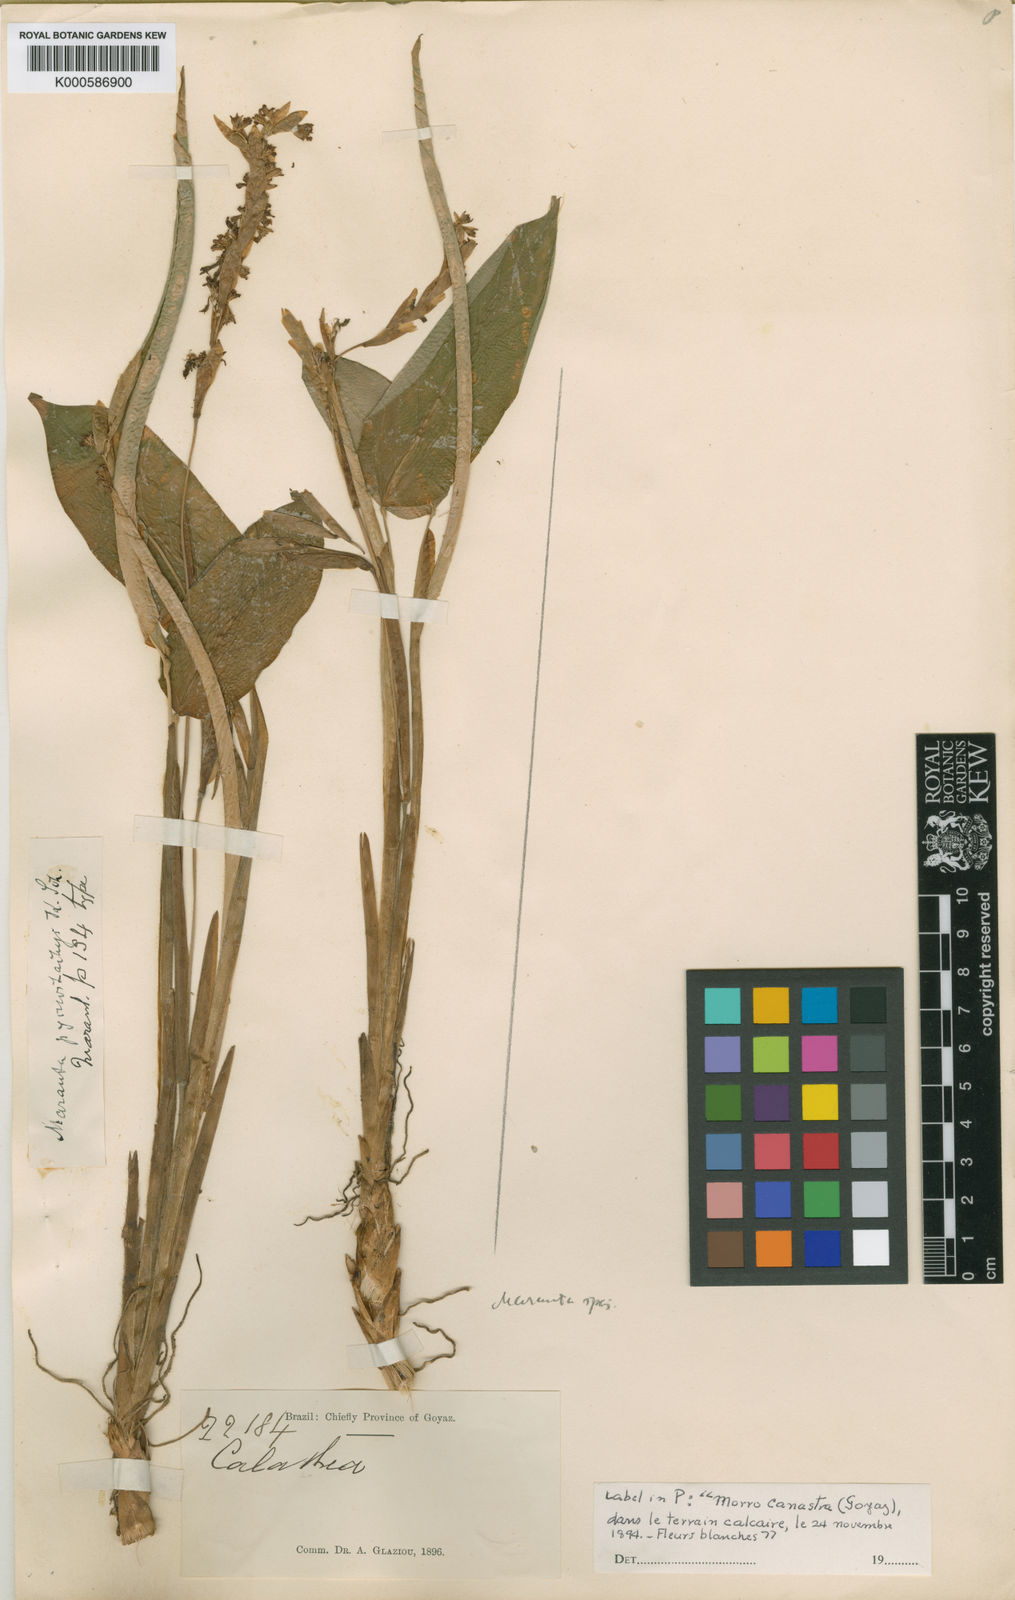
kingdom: Plantae
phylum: Tracheophyta
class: Liliopsida
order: Zingiberales
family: Marantaceae
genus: Maranta
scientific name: Maranta phrynioides
